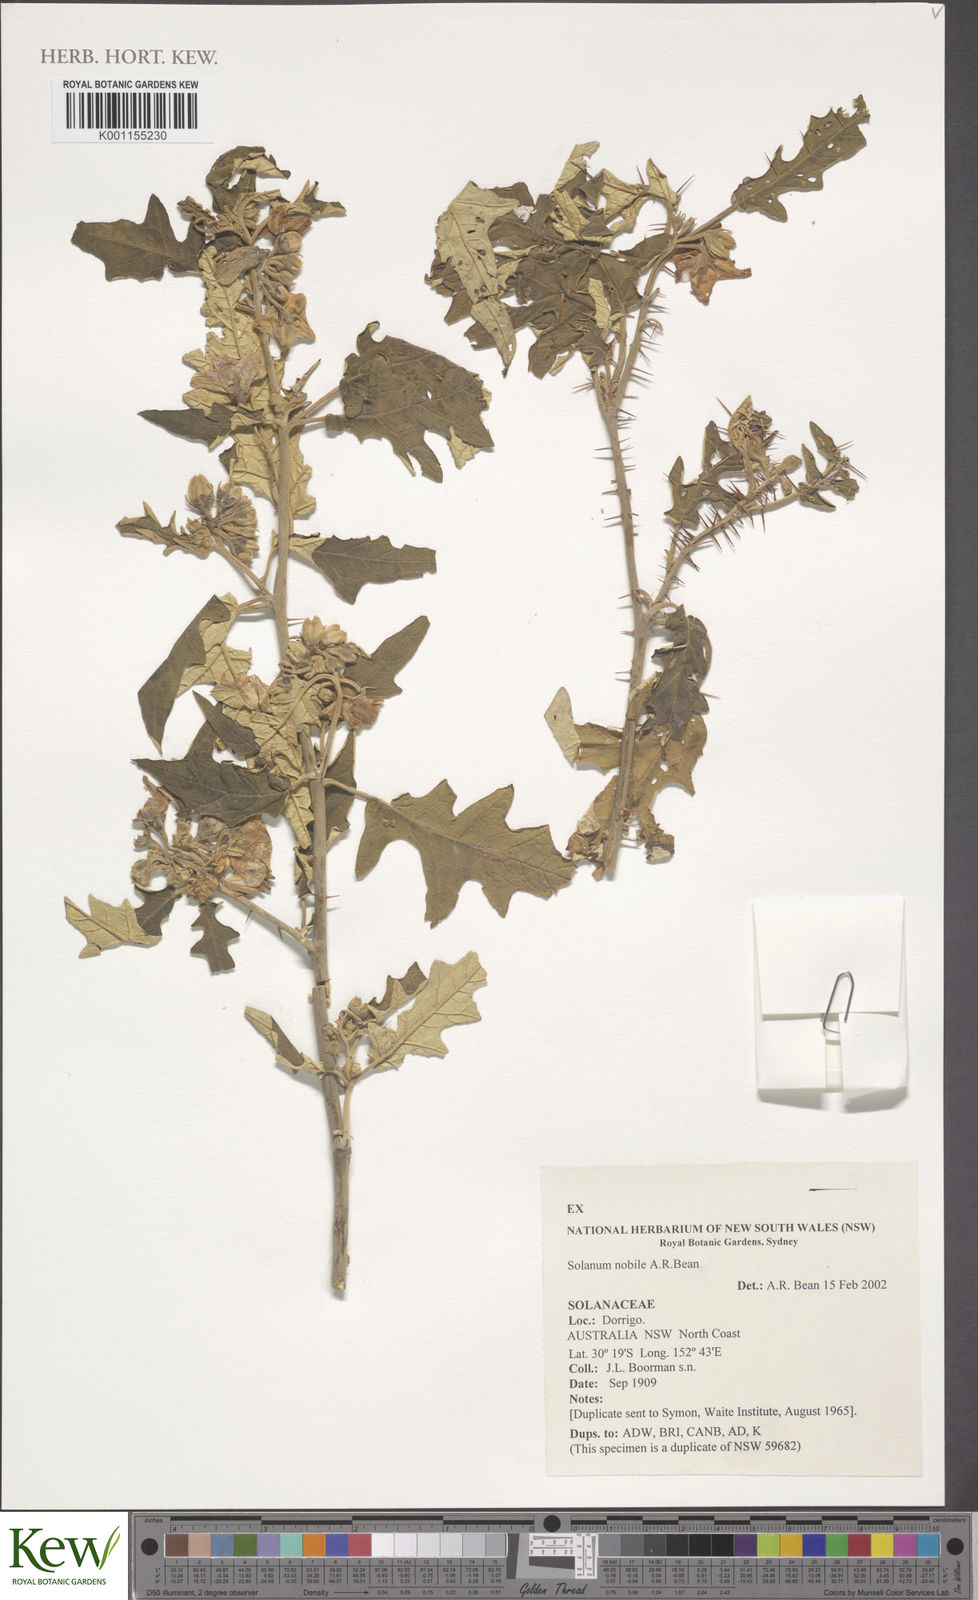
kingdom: Plantae
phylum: Tracheophyta
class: Magnoliopsida
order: Solanales
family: Solanaceae
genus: Solanum
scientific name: Solanum nobile
